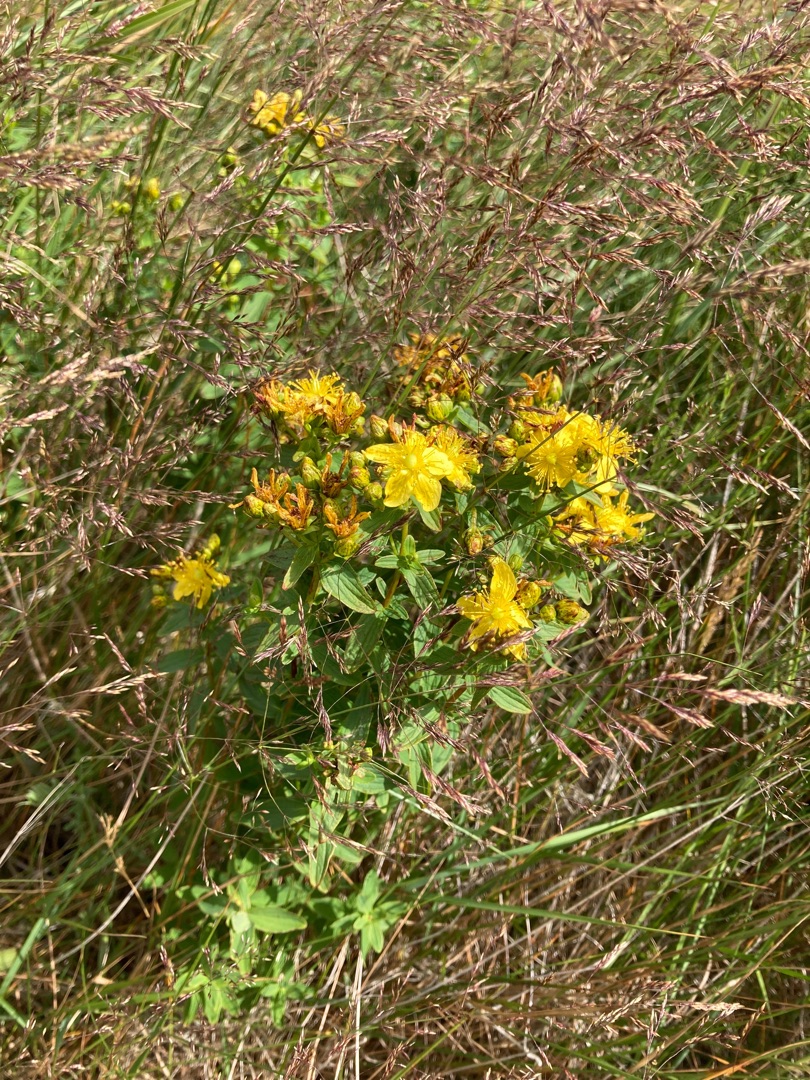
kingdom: Plantae
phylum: Tracheophyta
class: Magnoliopsida
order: Malpighiales
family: Hypericaceae
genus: Hypericum
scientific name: Hypericum maculatum
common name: Kantet perikon
